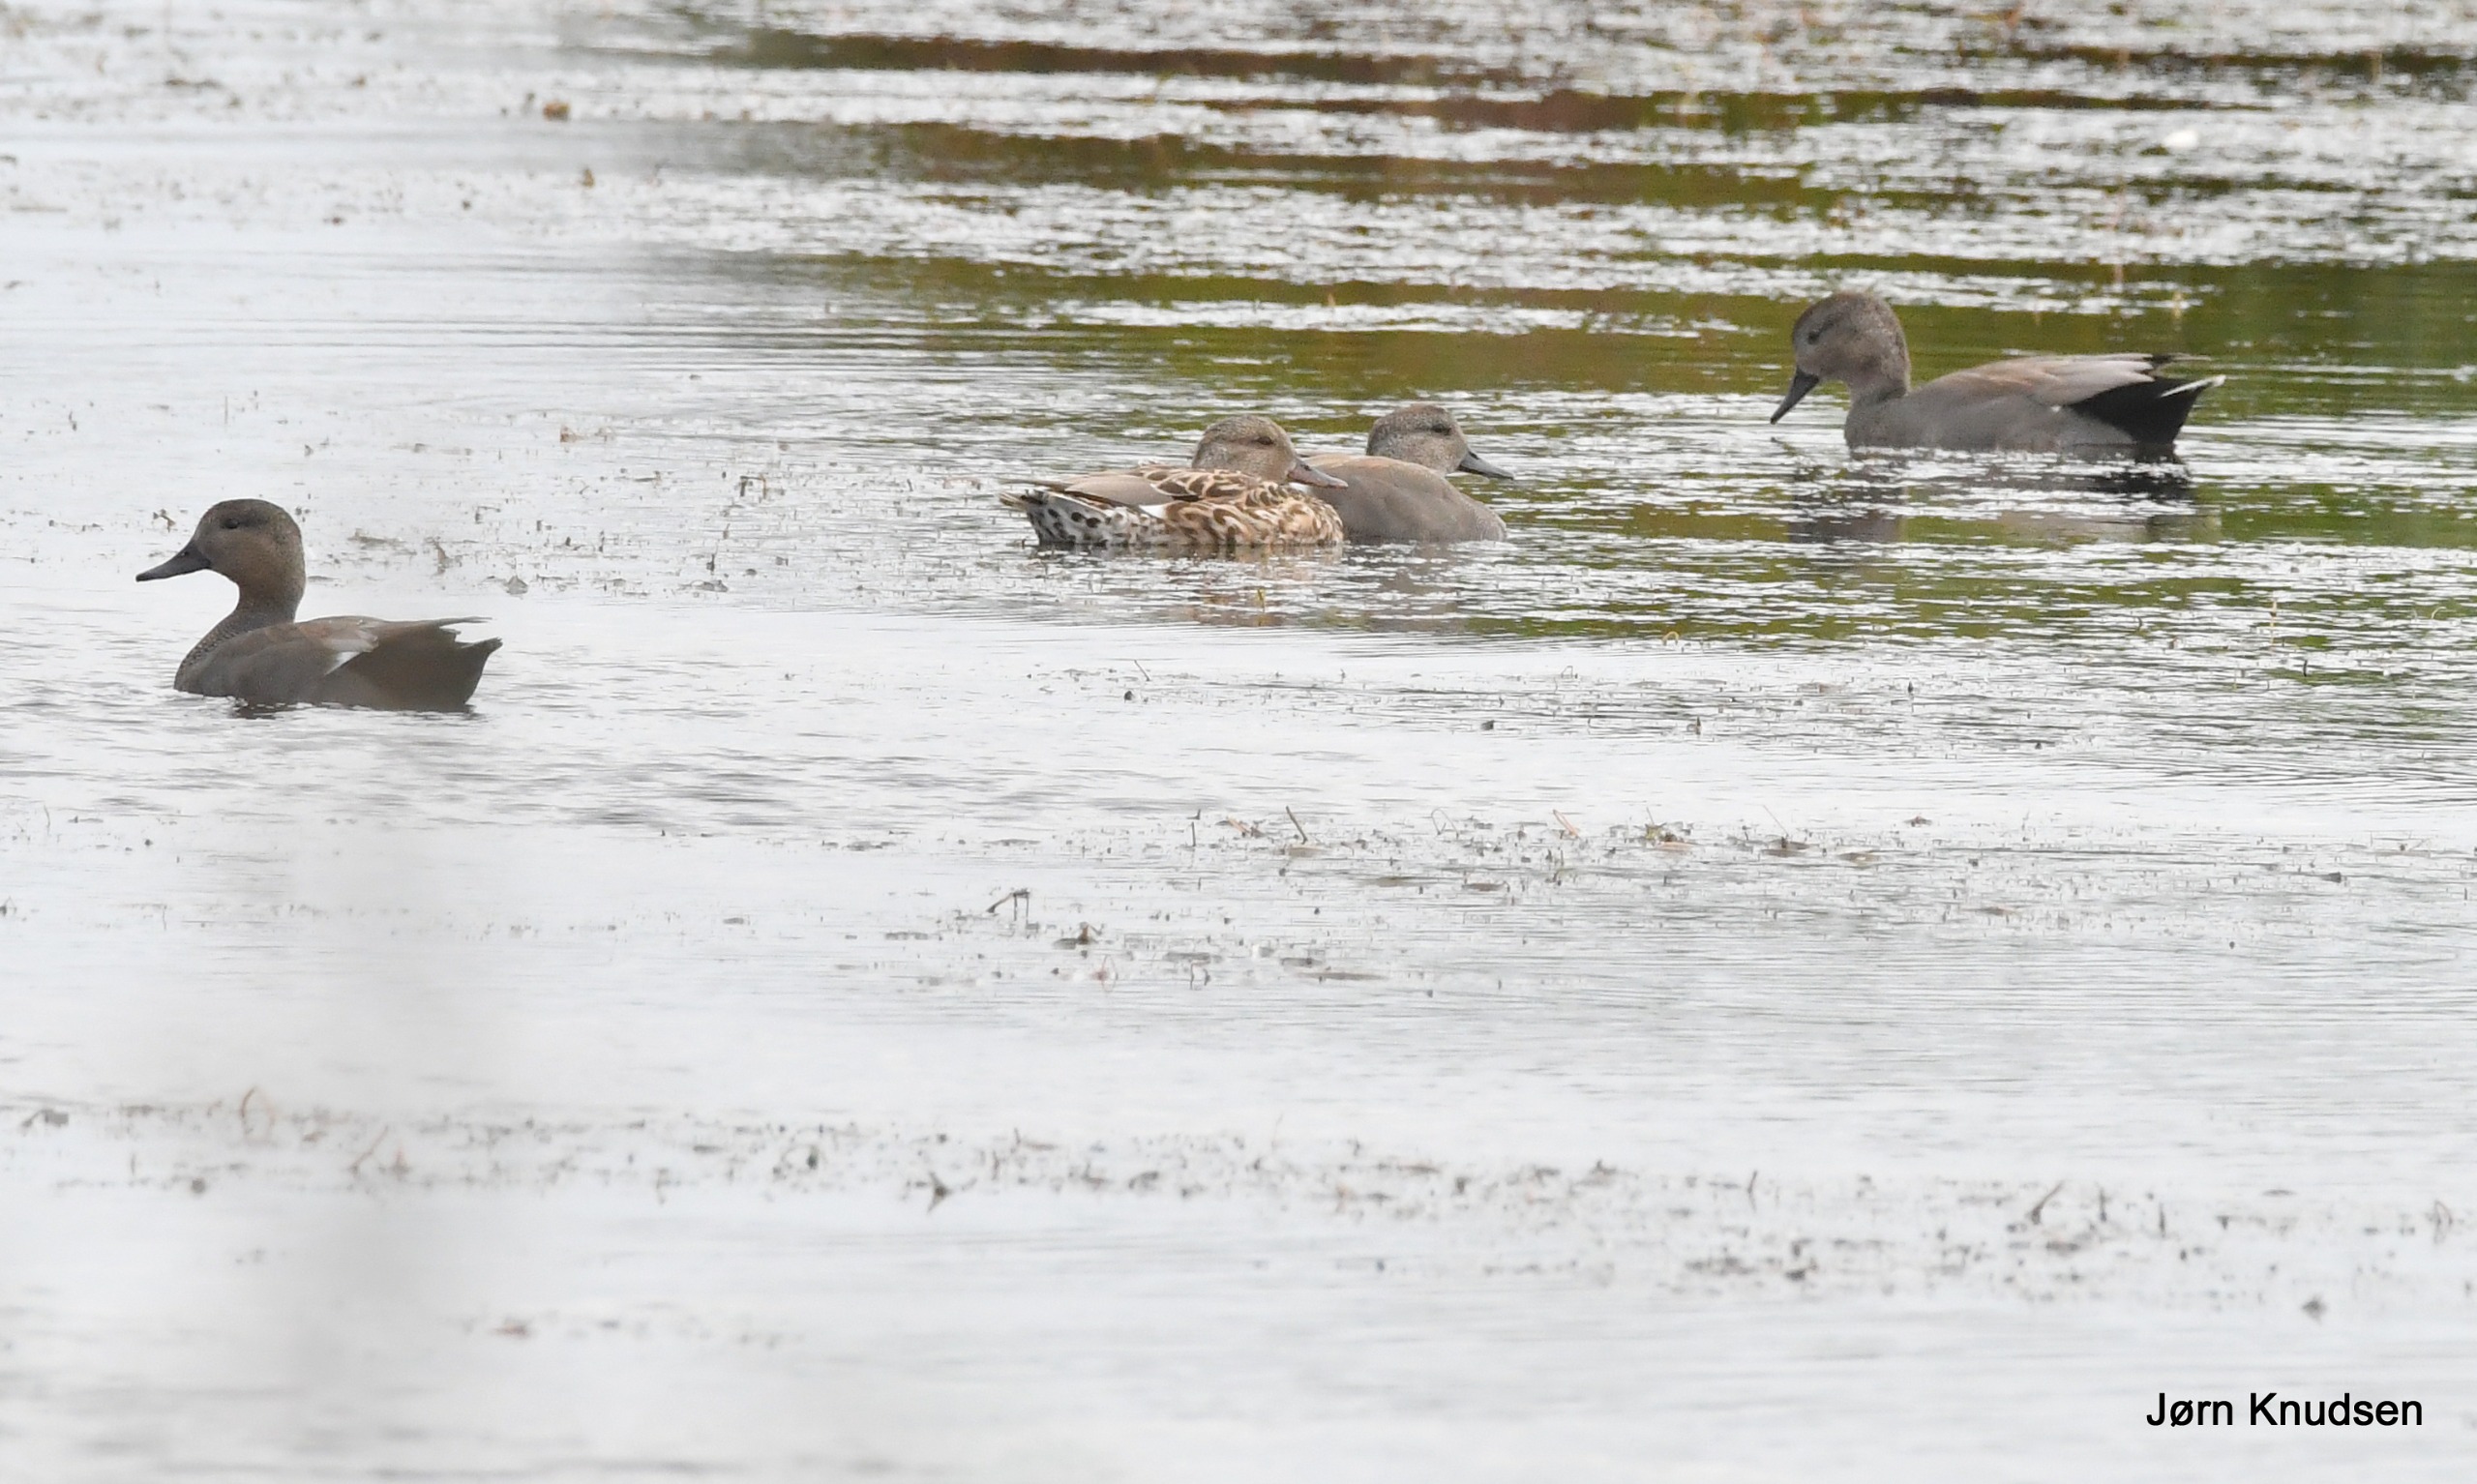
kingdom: Animalia
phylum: Chordata
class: Aves
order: Anseriformes
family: Anatidae
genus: Mareca
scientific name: Mareca strepera
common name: Knarand
